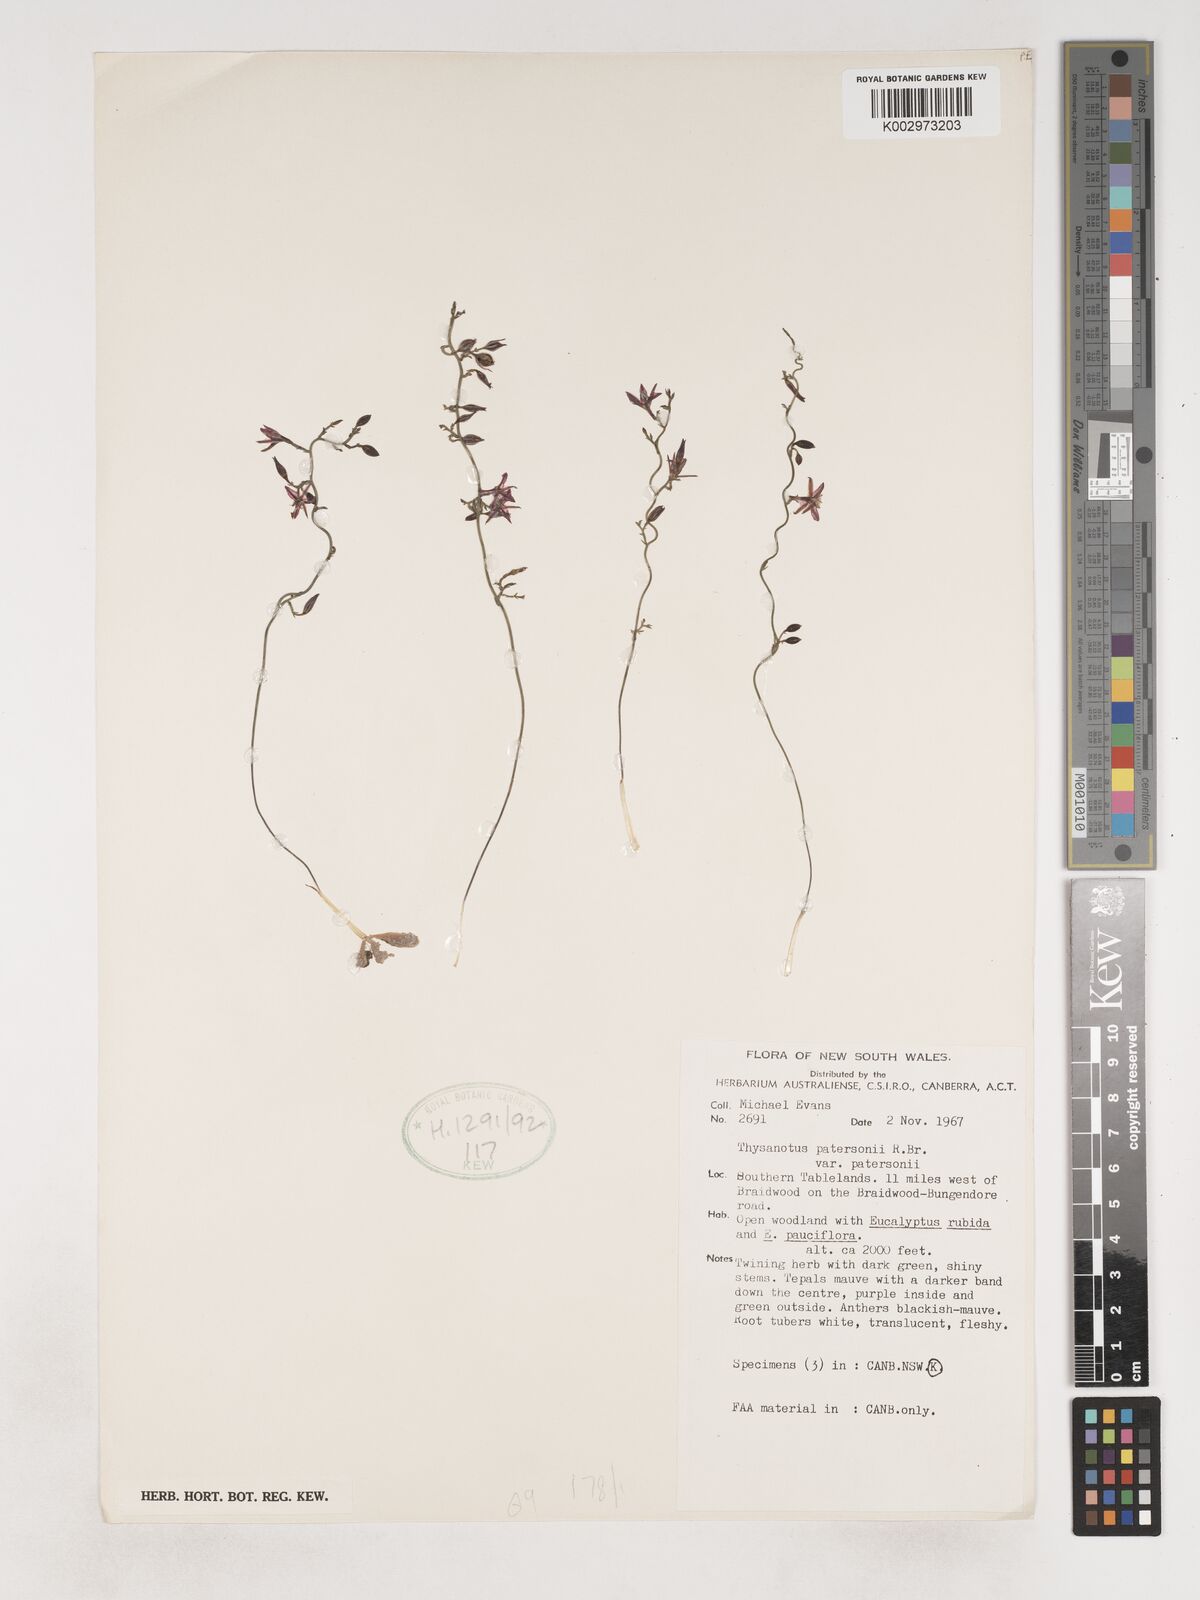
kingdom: Plantae
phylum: Tracheophyta
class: Liliopsida
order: Asparagales
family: Asparagaceae
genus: Thysanotus
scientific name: Thysanotus patersonii
